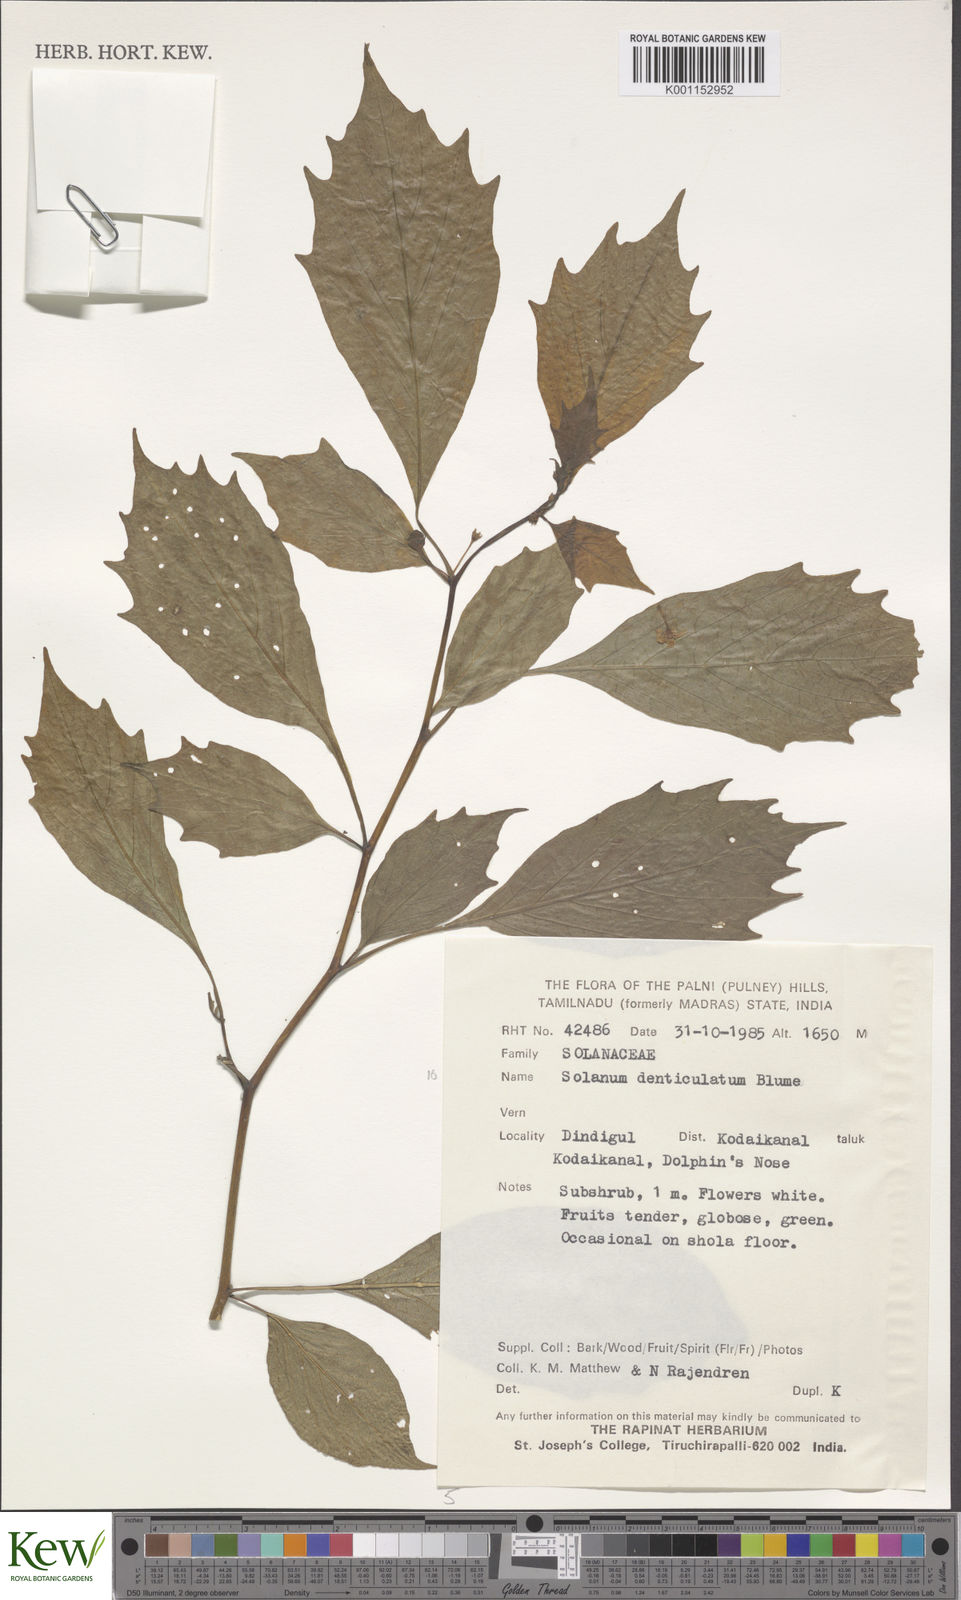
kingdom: Plantae
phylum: Tracheophyta
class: Magnoliopsida
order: Solanales
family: Solanaceae
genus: Lycianthes
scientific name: Lycianthes denticulata
